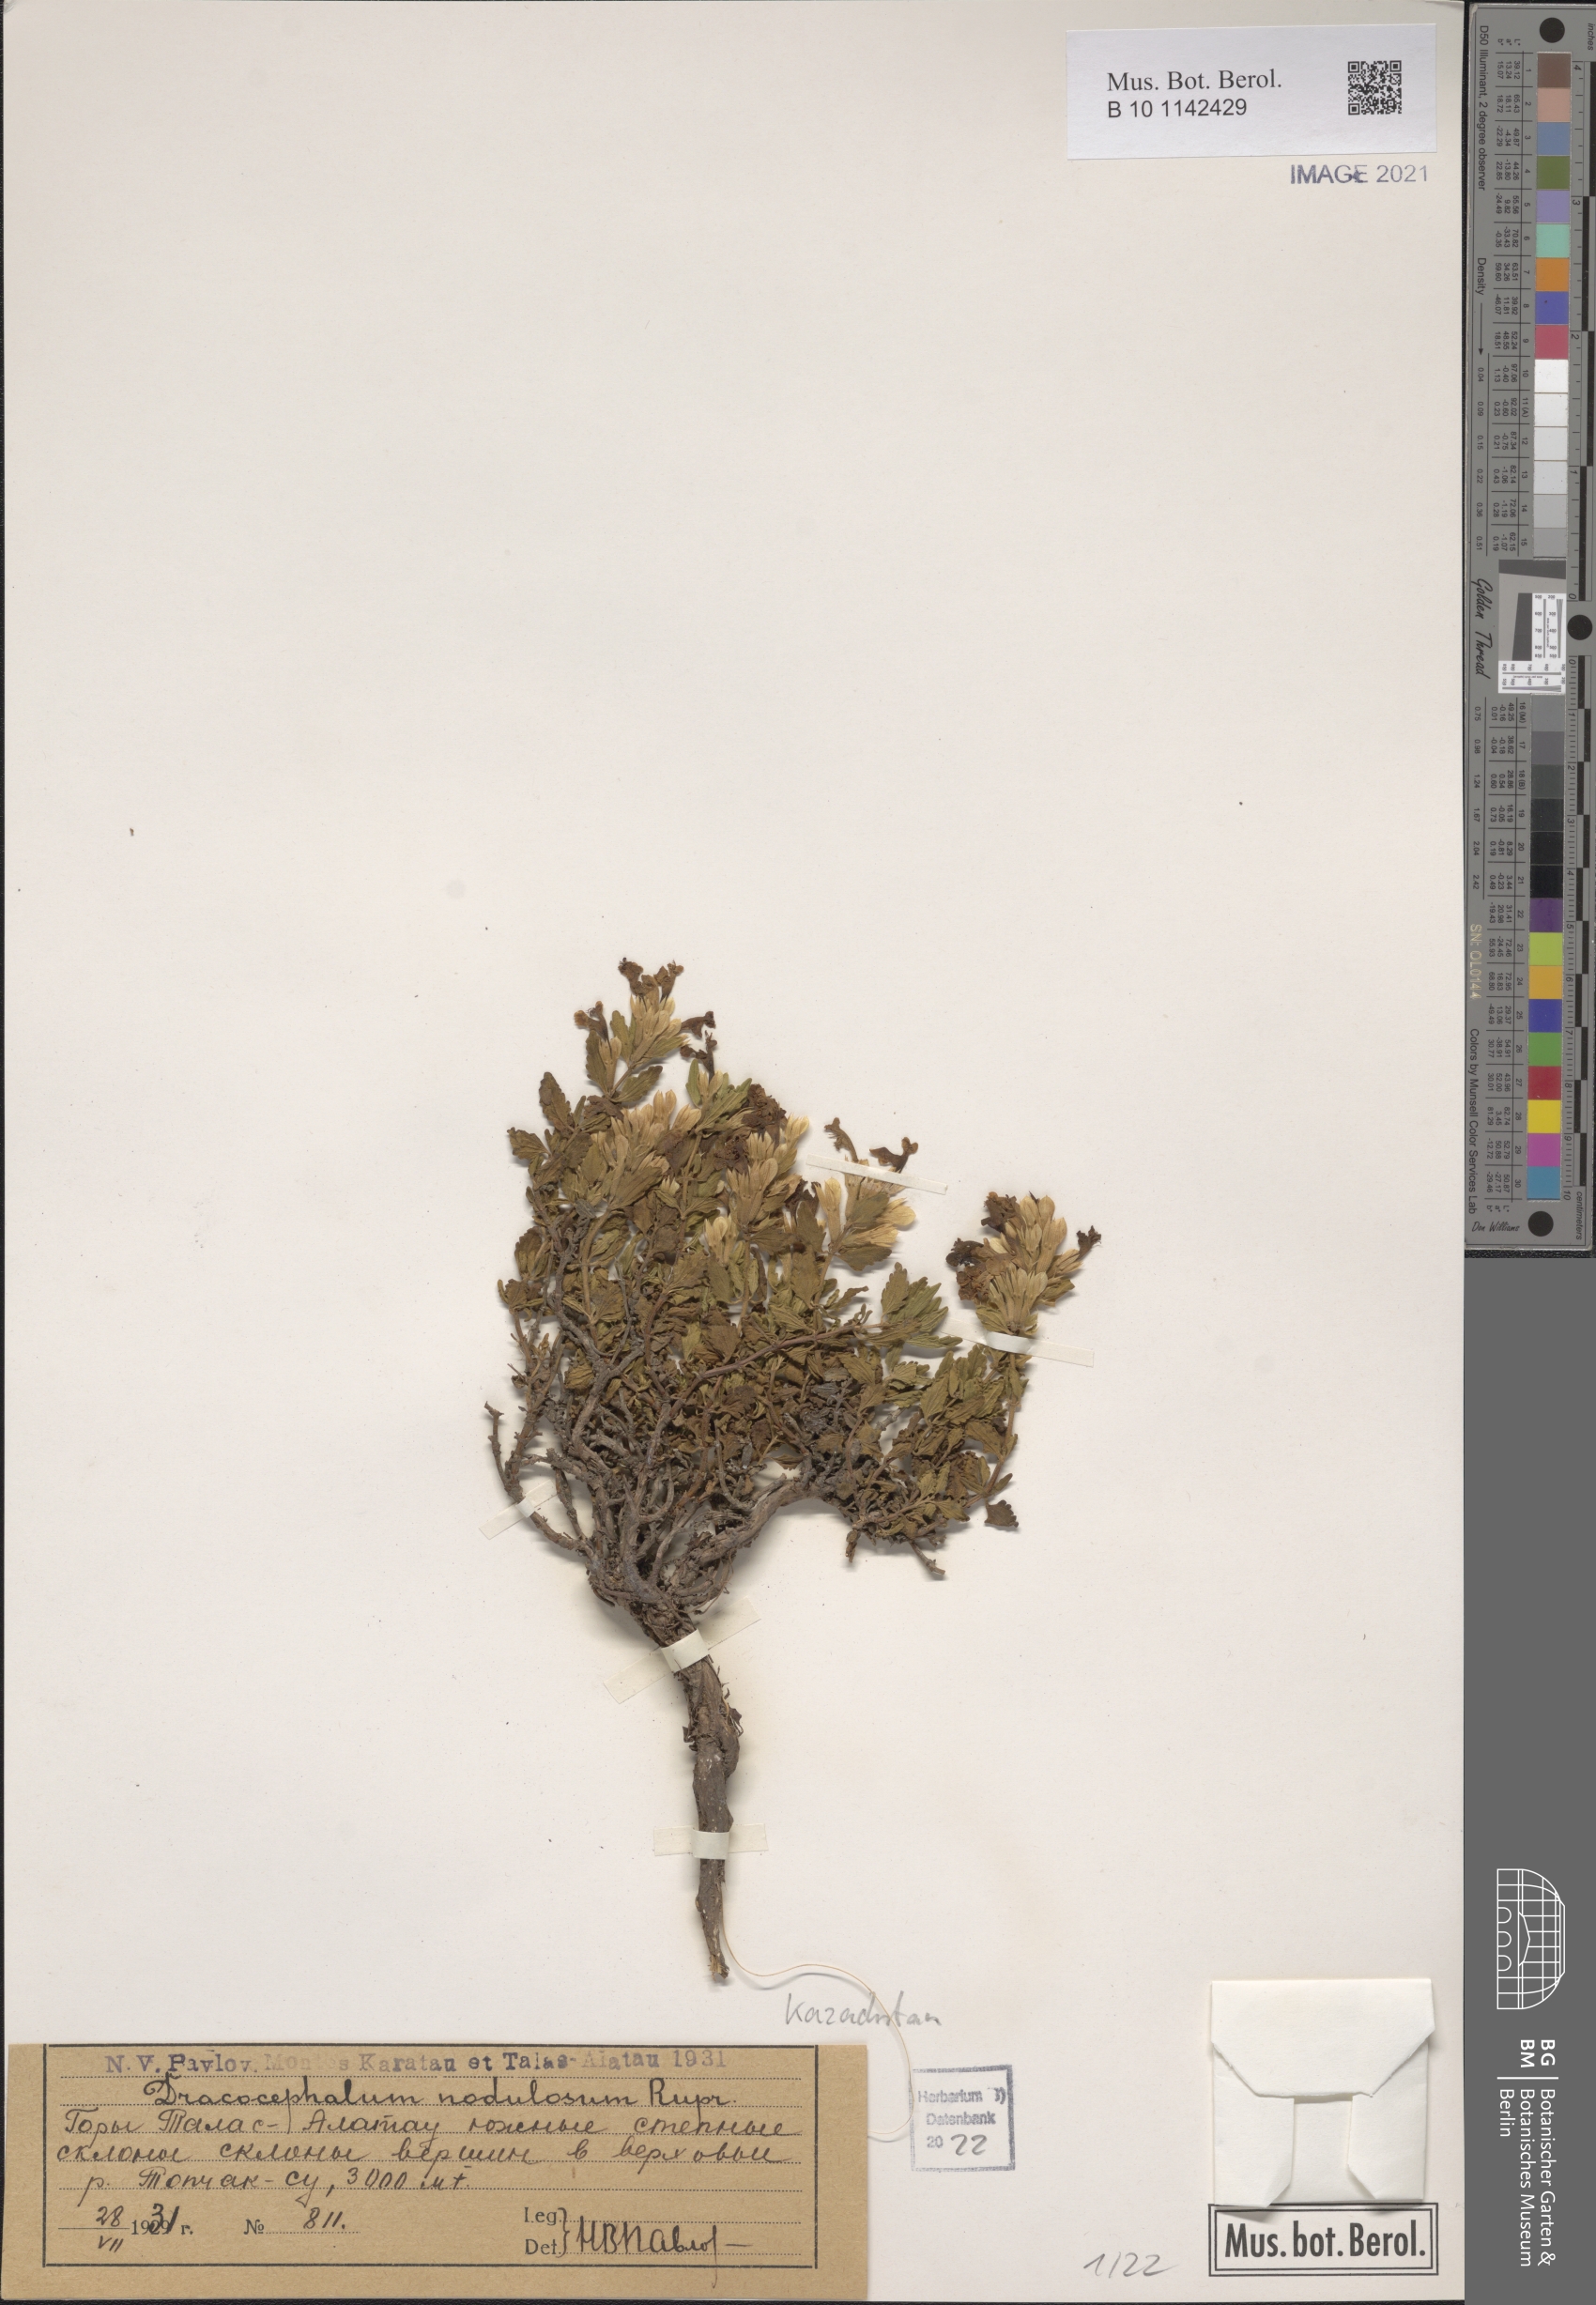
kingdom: Plantae
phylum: Tracheophyta
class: Magnoliopsida
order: Lamiales
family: Lamiaceae
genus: Dracocephalum
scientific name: Dracocephalum nodulosum
